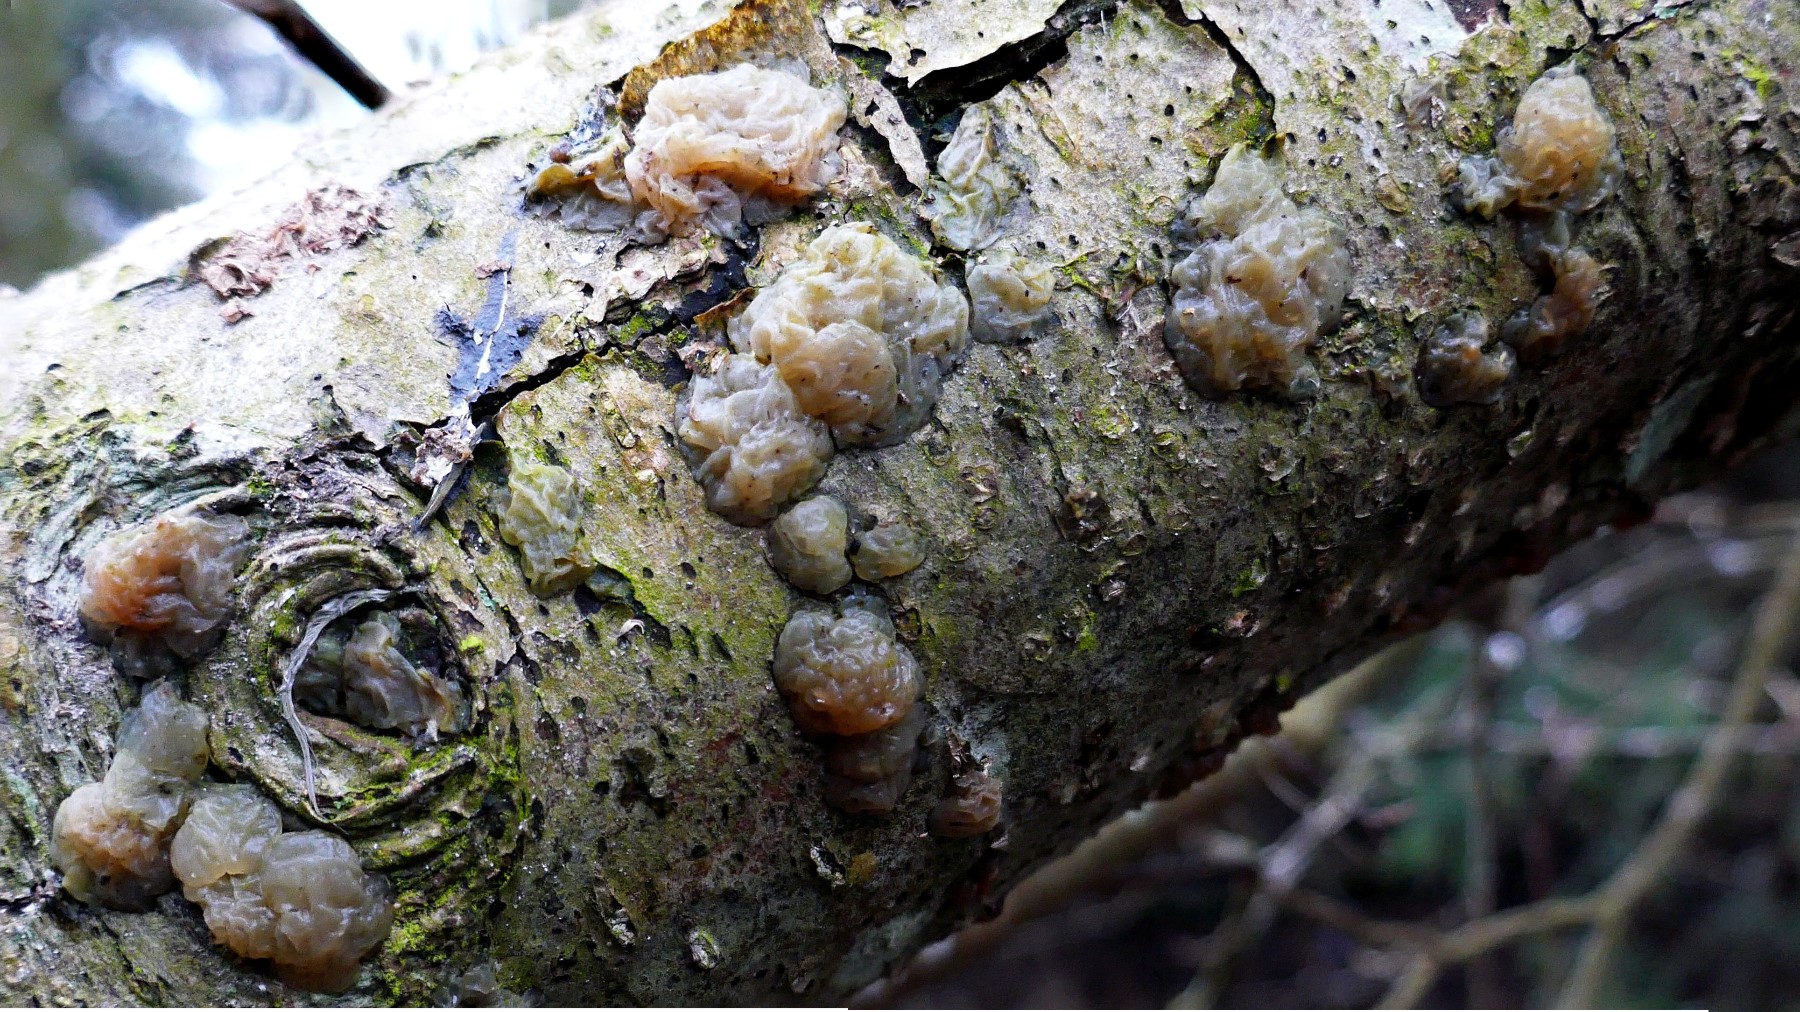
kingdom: Fungi
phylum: Basidiomycota
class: Agaricomycetes
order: Auriculariales
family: Hyaloriaceae
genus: Myxarium
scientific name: Myxarium nucleatum
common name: klar bævretop
